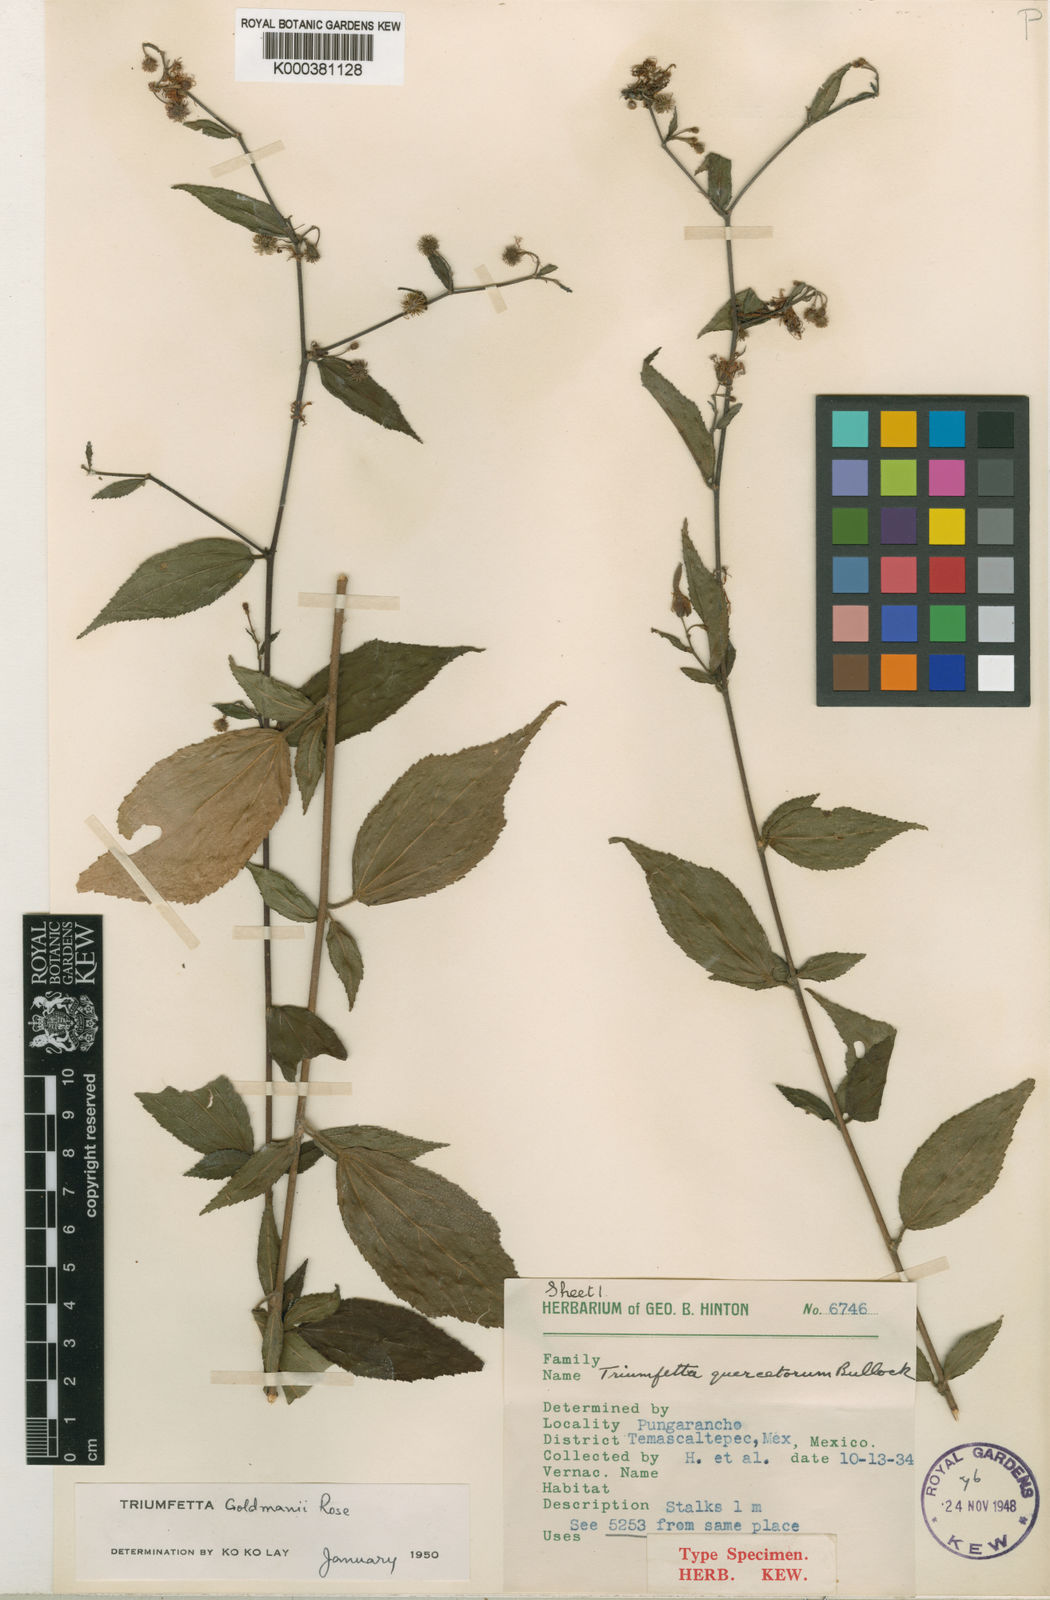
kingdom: Plantae
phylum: Tracheophyta
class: Magnoliopsida
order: Malvales
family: Malvaceae
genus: Triumfetta
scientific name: Triumfetta goldmanii
